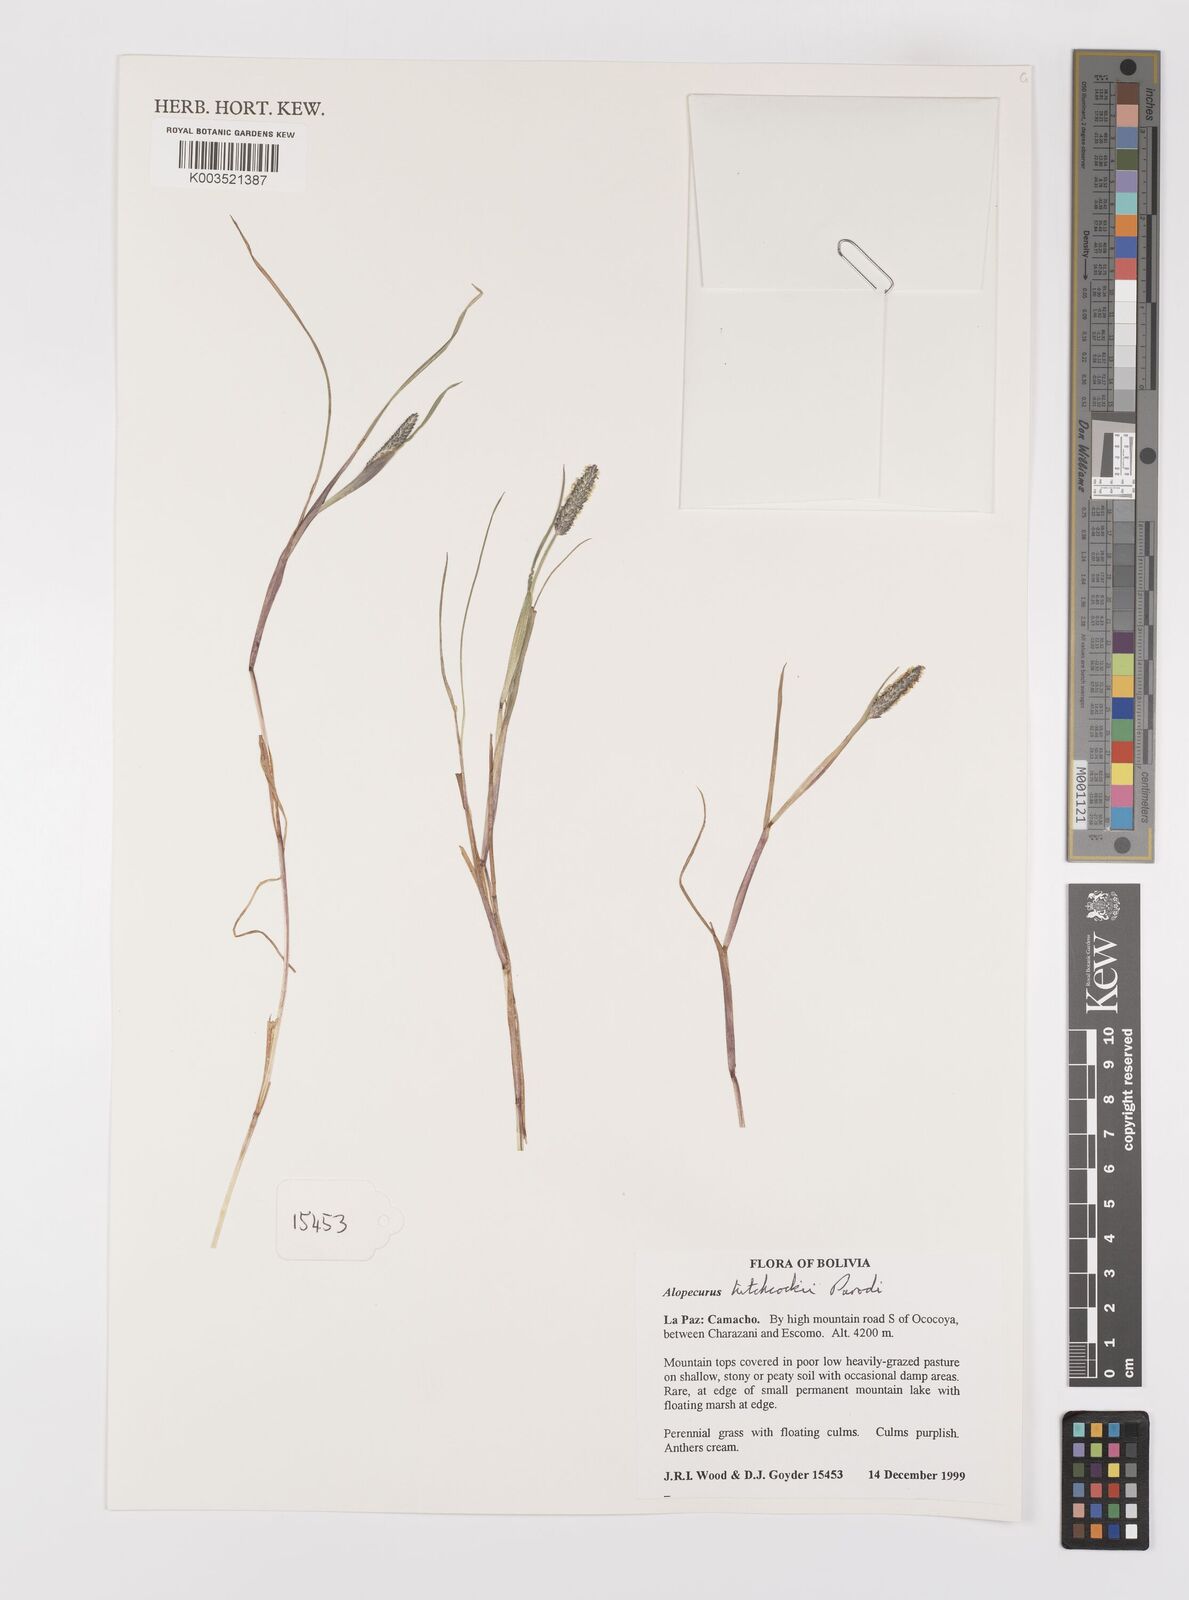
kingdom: Plantae
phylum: Tracheophyta
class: Liliopsida
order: Poales
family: Poaceae
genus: Alopecurus
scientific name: Alopecurus hitchcockii
